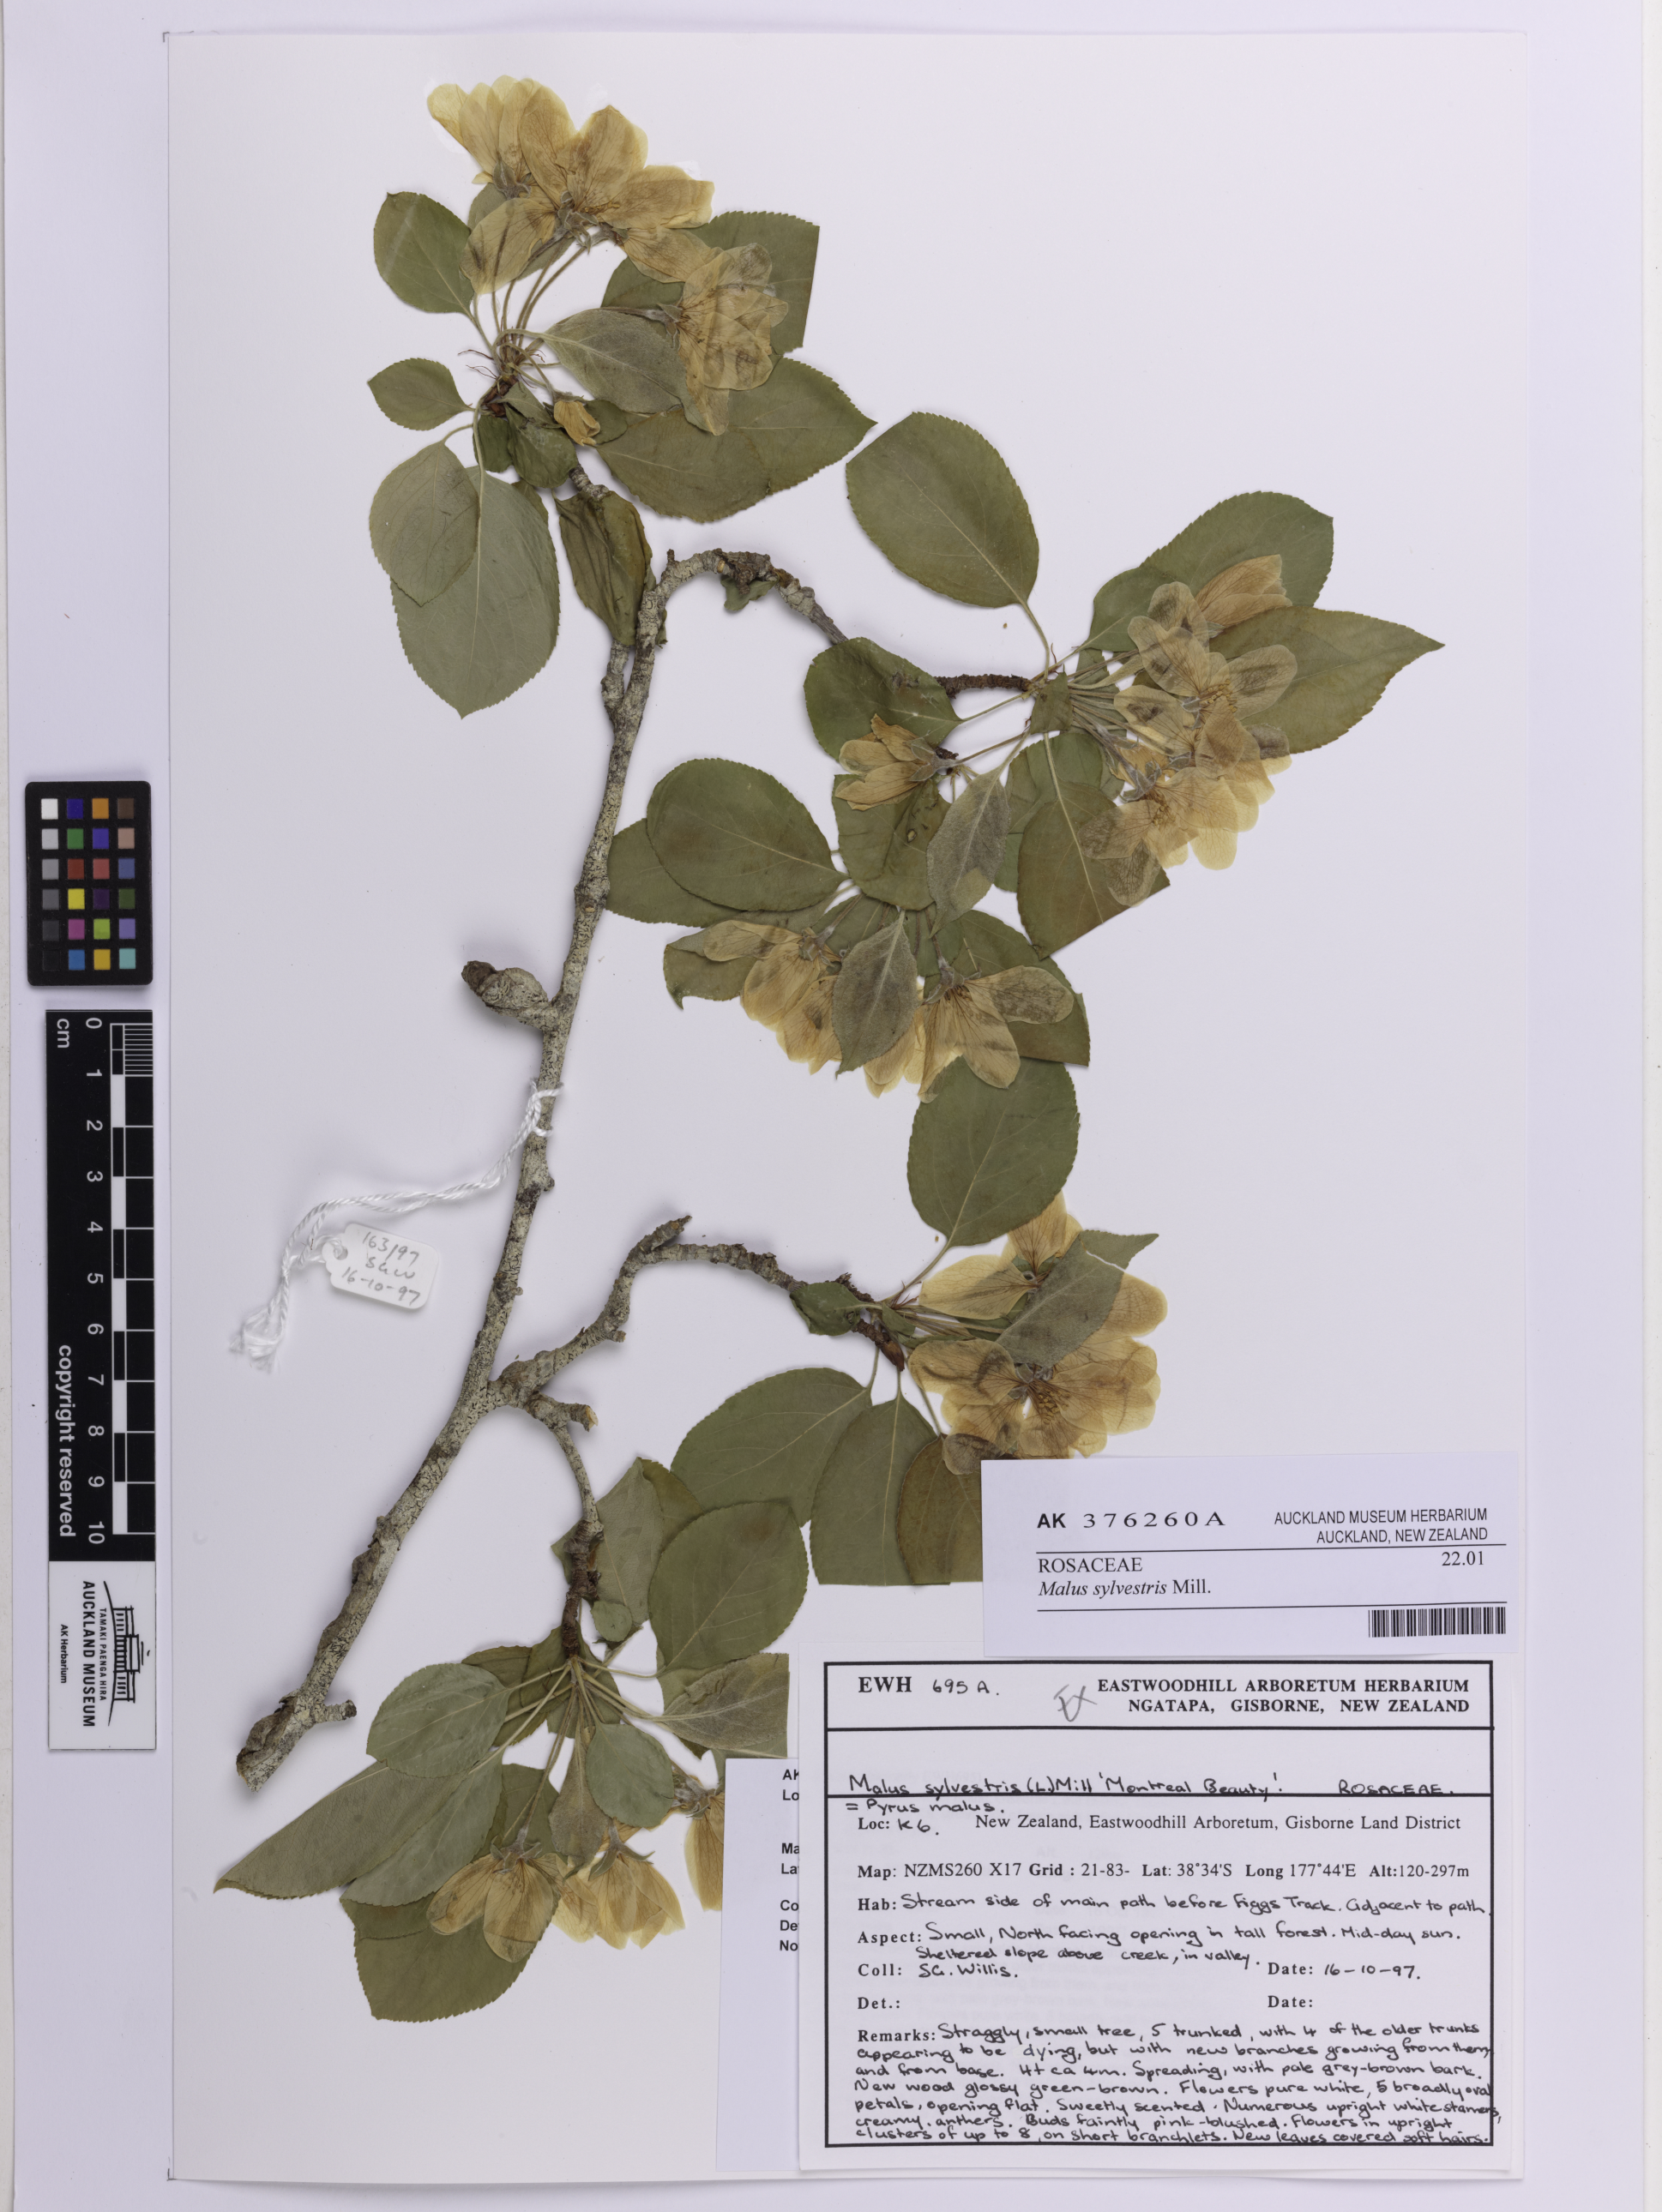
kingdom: Plantae
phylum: Tracheophyta
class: Magnoliopsida
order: Rosales
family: Rosaceae
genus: Malus
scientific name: Malus sylvestris
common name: Crab apple
